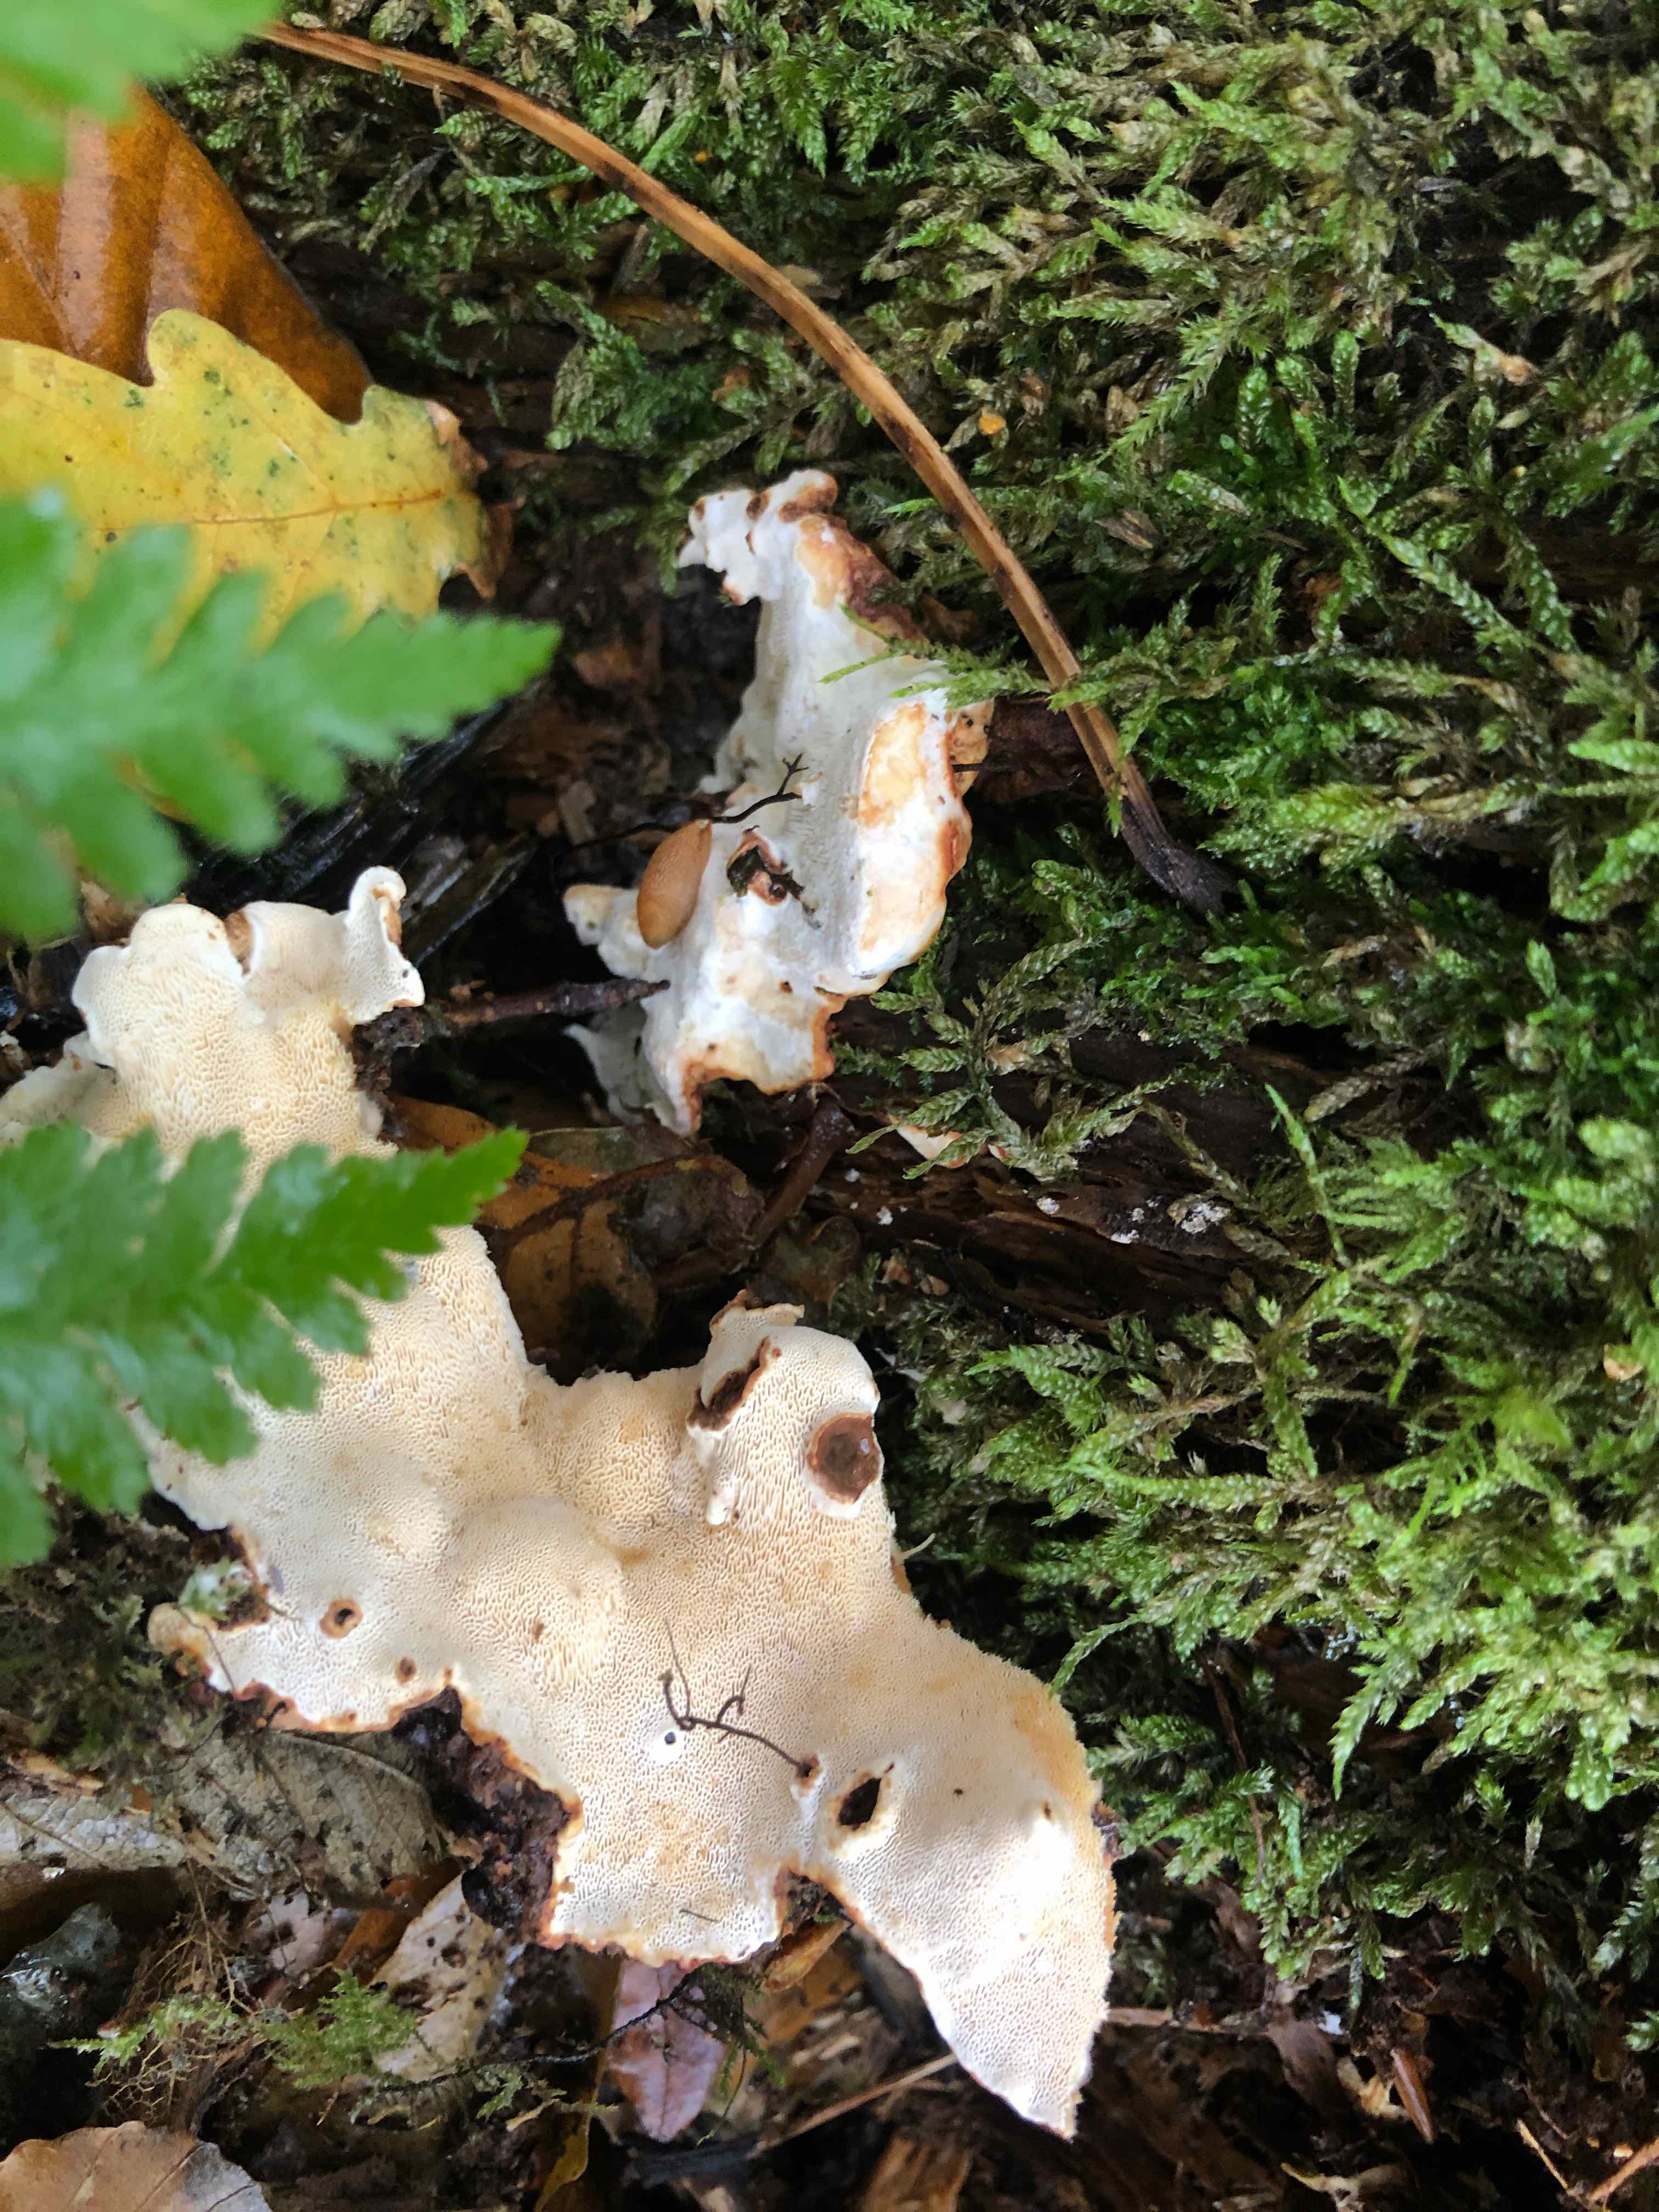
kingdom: Fungi
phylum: Basidiomycota
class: Agaricomycetes
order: Russulales
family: Bondarzewiaceae
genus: Heterobasidion
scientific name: Heterobasidion annosum
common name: almindelig rodfordærver
